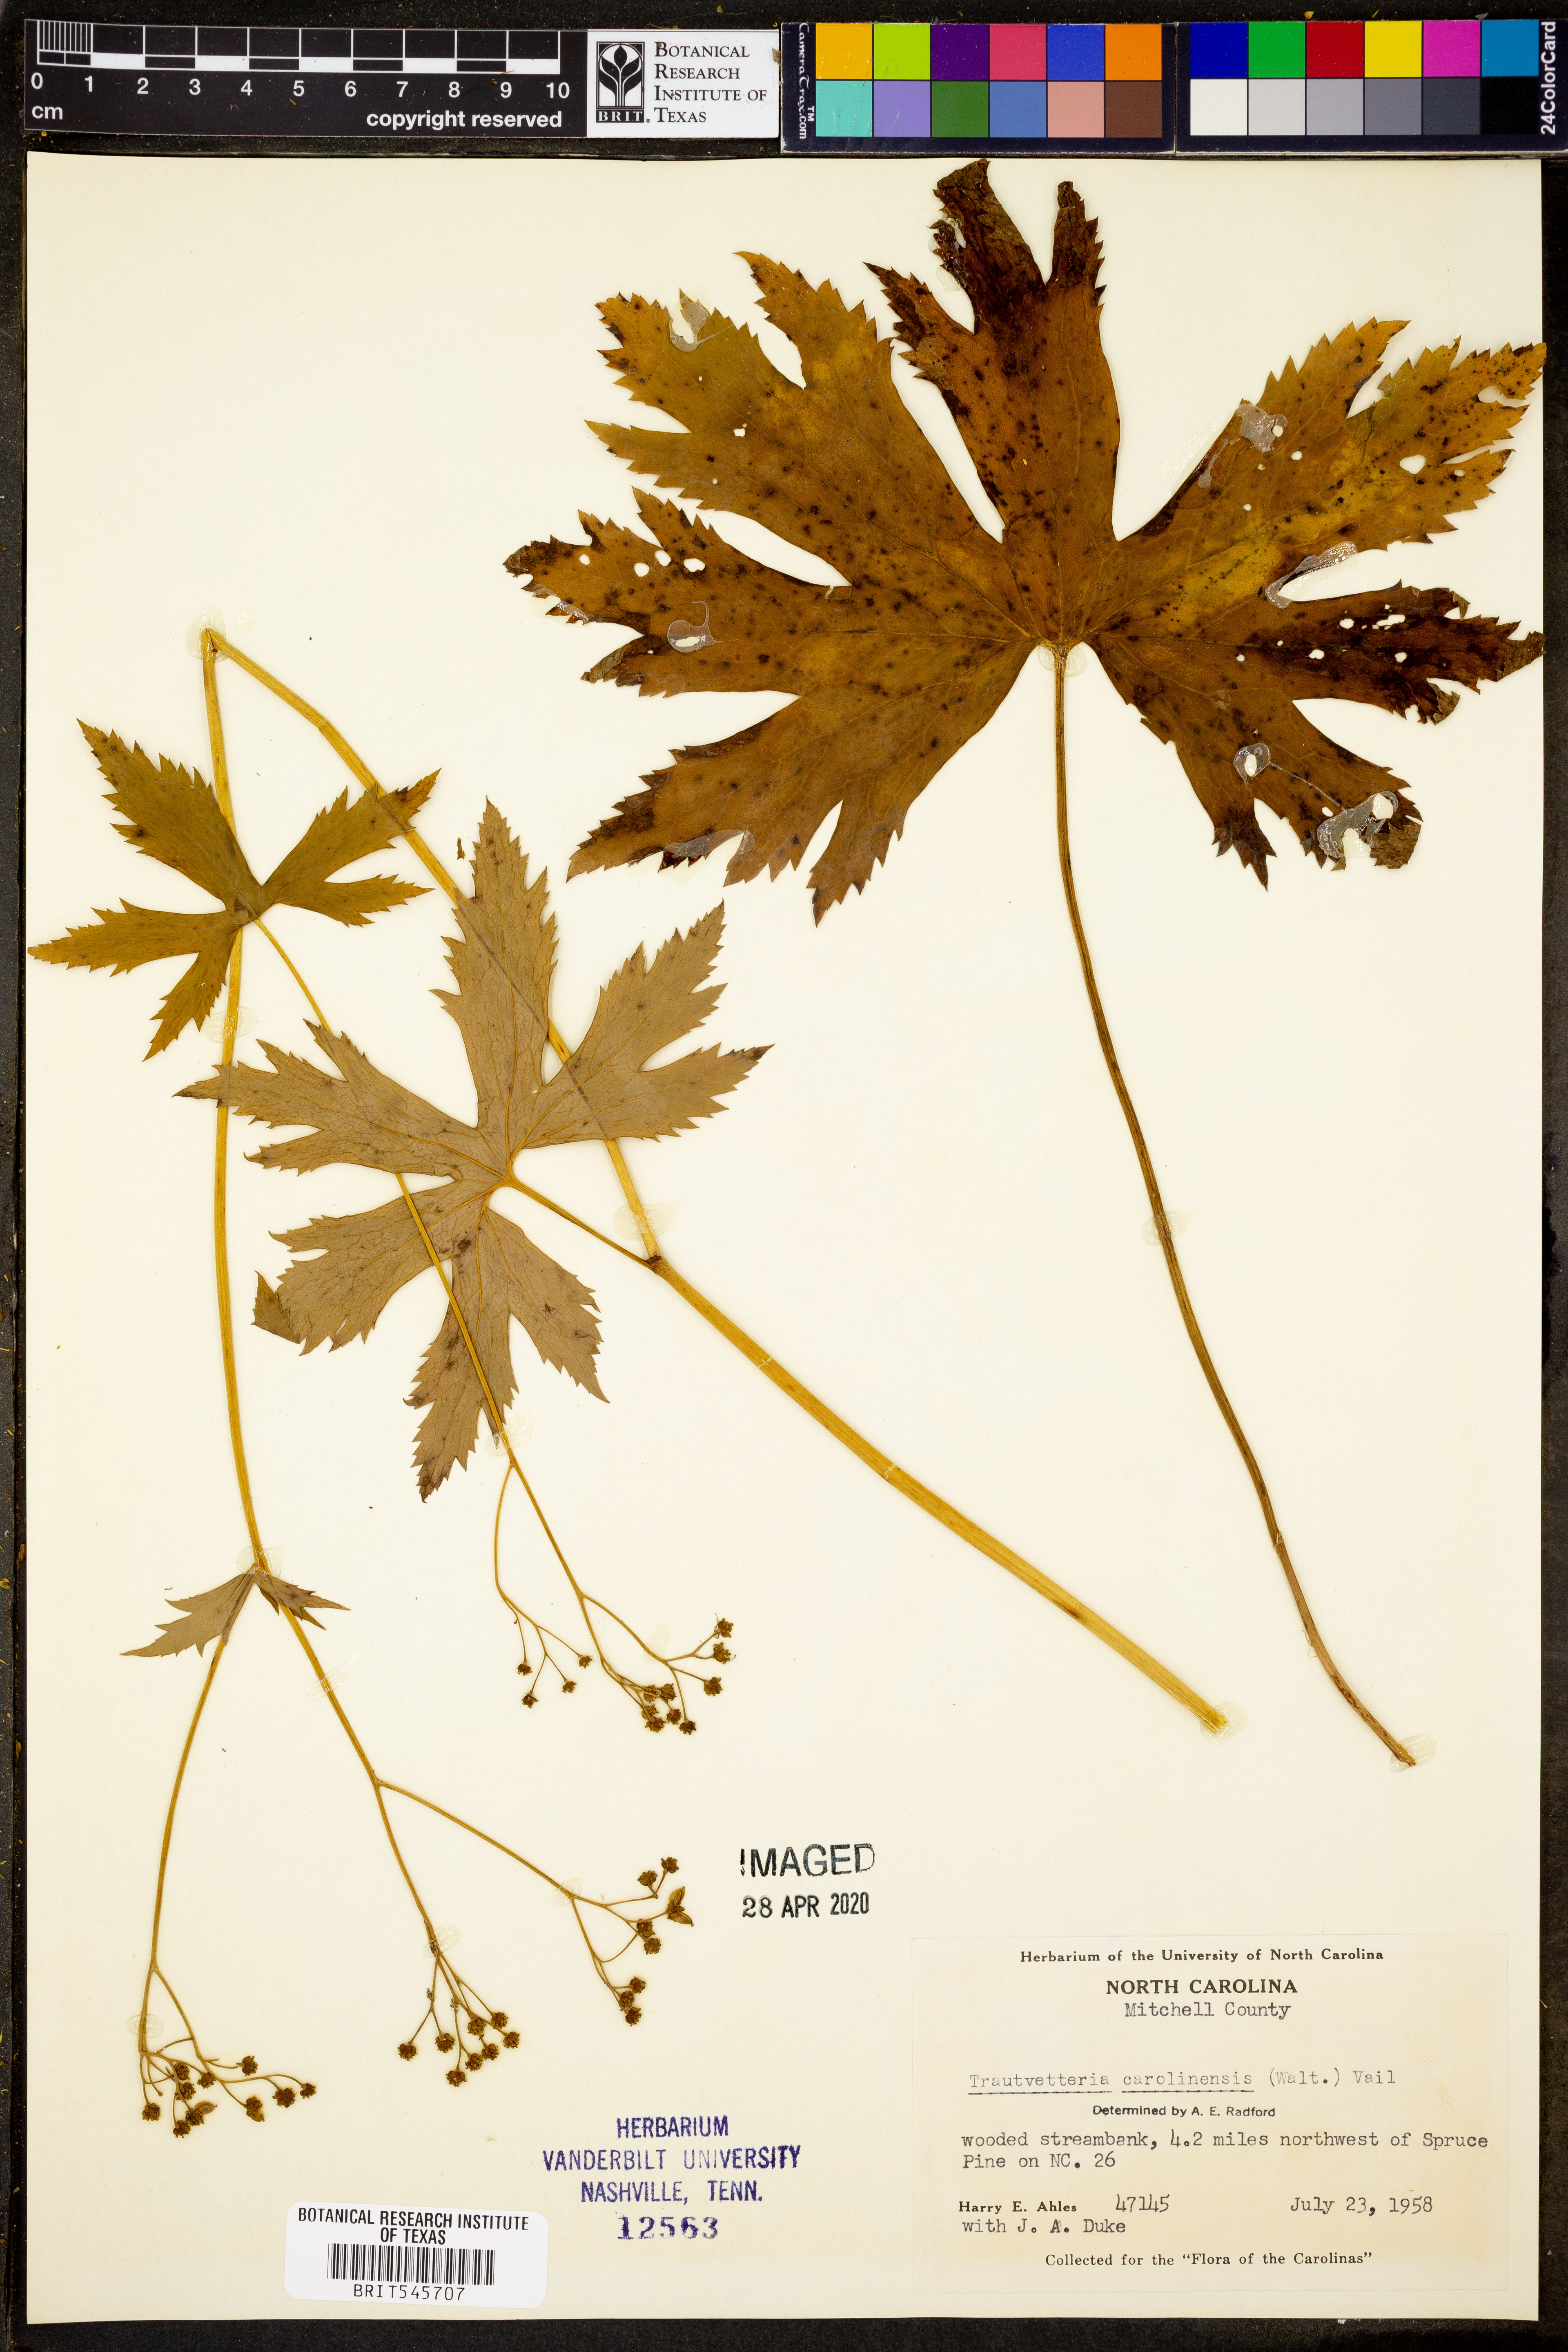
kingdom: Plantae
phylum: Tracheophyta
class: Magnoliopsida
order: Ranunculales
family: Ranunculaceae
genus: Trautvetteria
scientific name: Trautvetteria carolinensis
